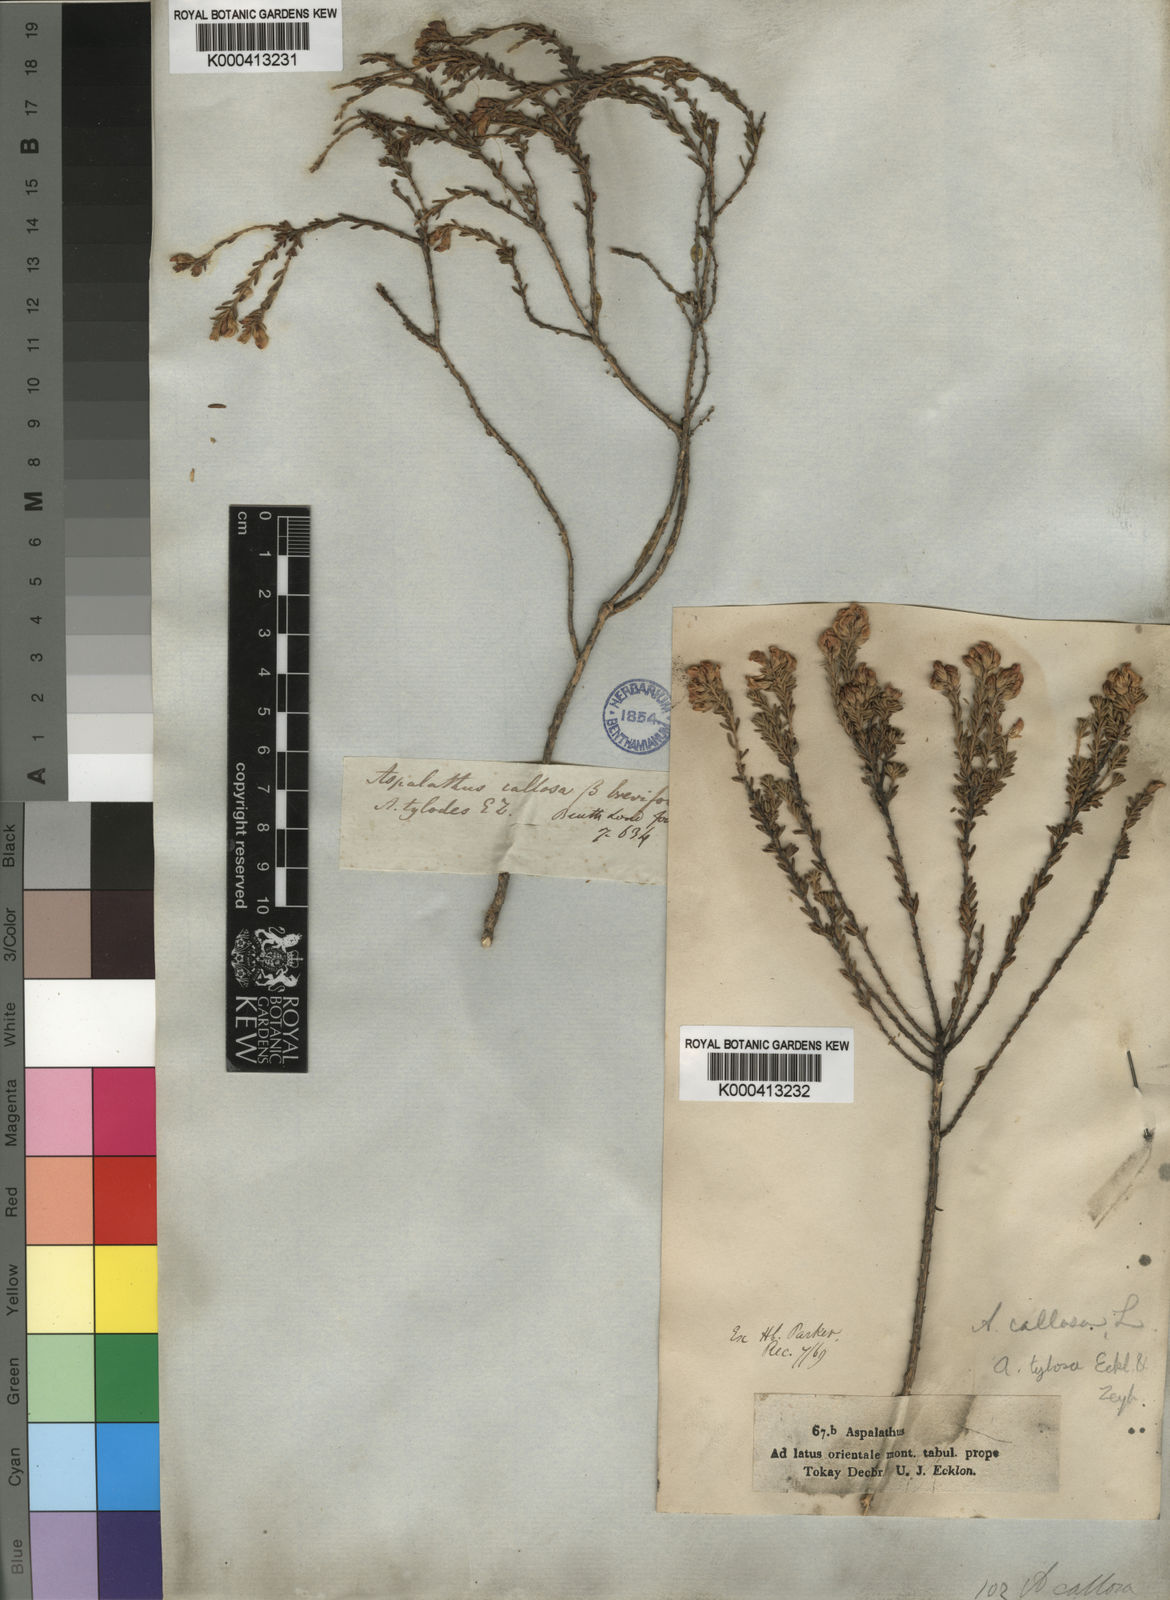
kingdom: Plantae
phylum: Tracheophyta
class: Magnoliopsida
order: Fabales
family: Fabaceae
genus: Aspalathus
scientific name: Aspalathus tylodes
